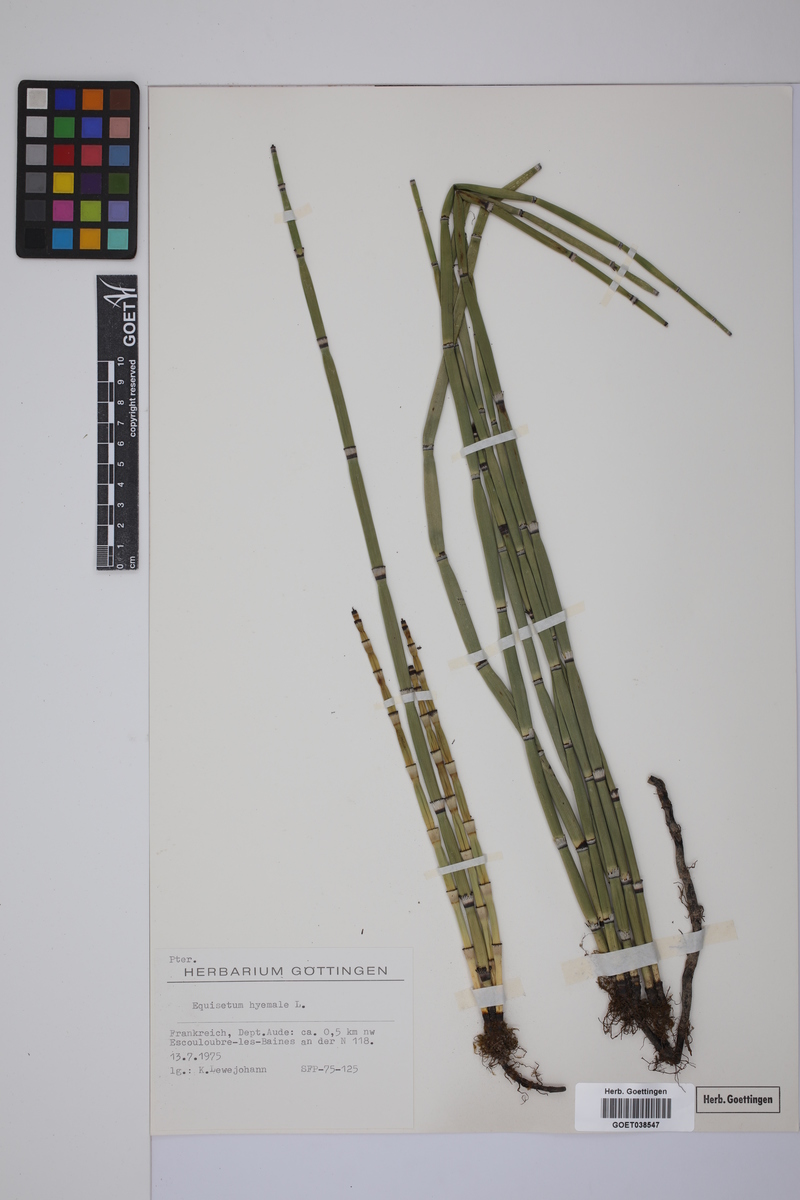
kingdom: Plantae
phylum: Tracheophyta
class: Polypodiopsida
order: Equisetales
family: Equisetaceae
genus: Equisetum
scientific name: Equisetum hyemale
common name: Rough horsetail
